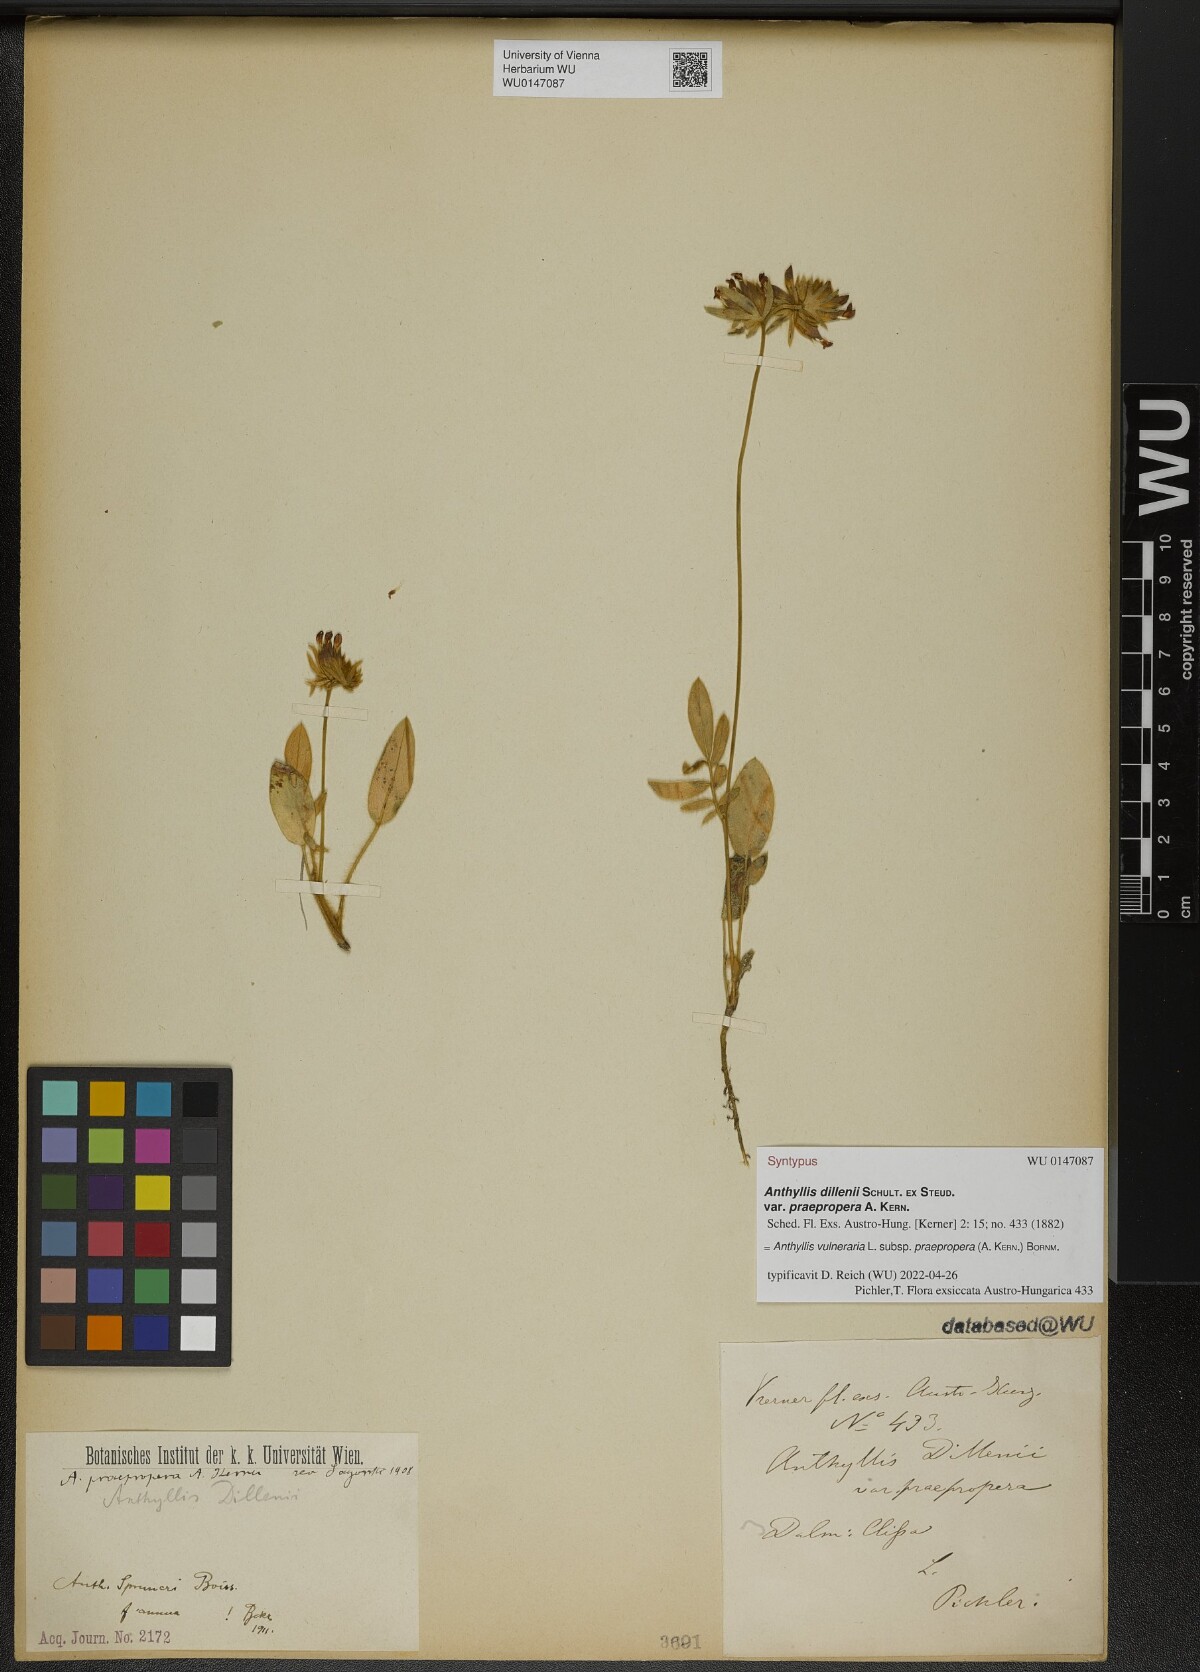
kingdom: Plantae
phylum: Tracheophyta
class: Magnoliopsida
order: Fabales
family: Fabaceae
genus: Anthyllis
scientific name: Anthyllis vulneraria
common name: Kidney vetch
